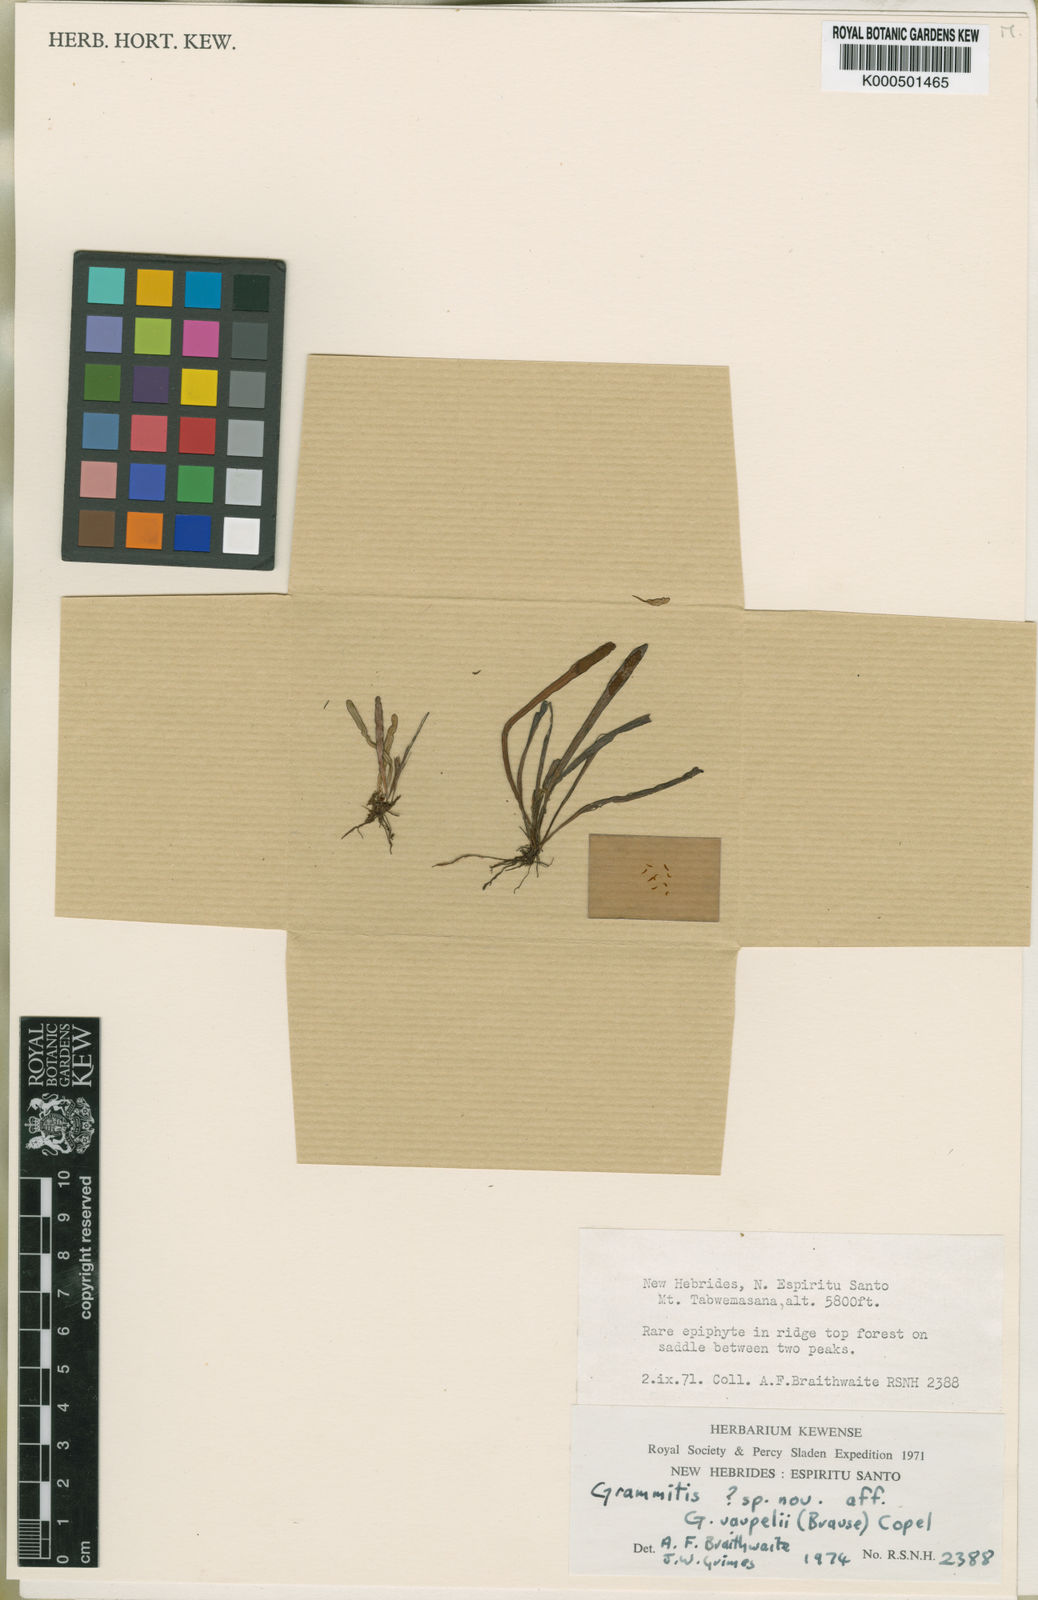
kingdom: Plantae
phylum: Tracheophyta
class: Polypodiopsida
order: Polypodiales
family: Polypodiaceae
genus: Grammitis
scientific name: Grammitis
